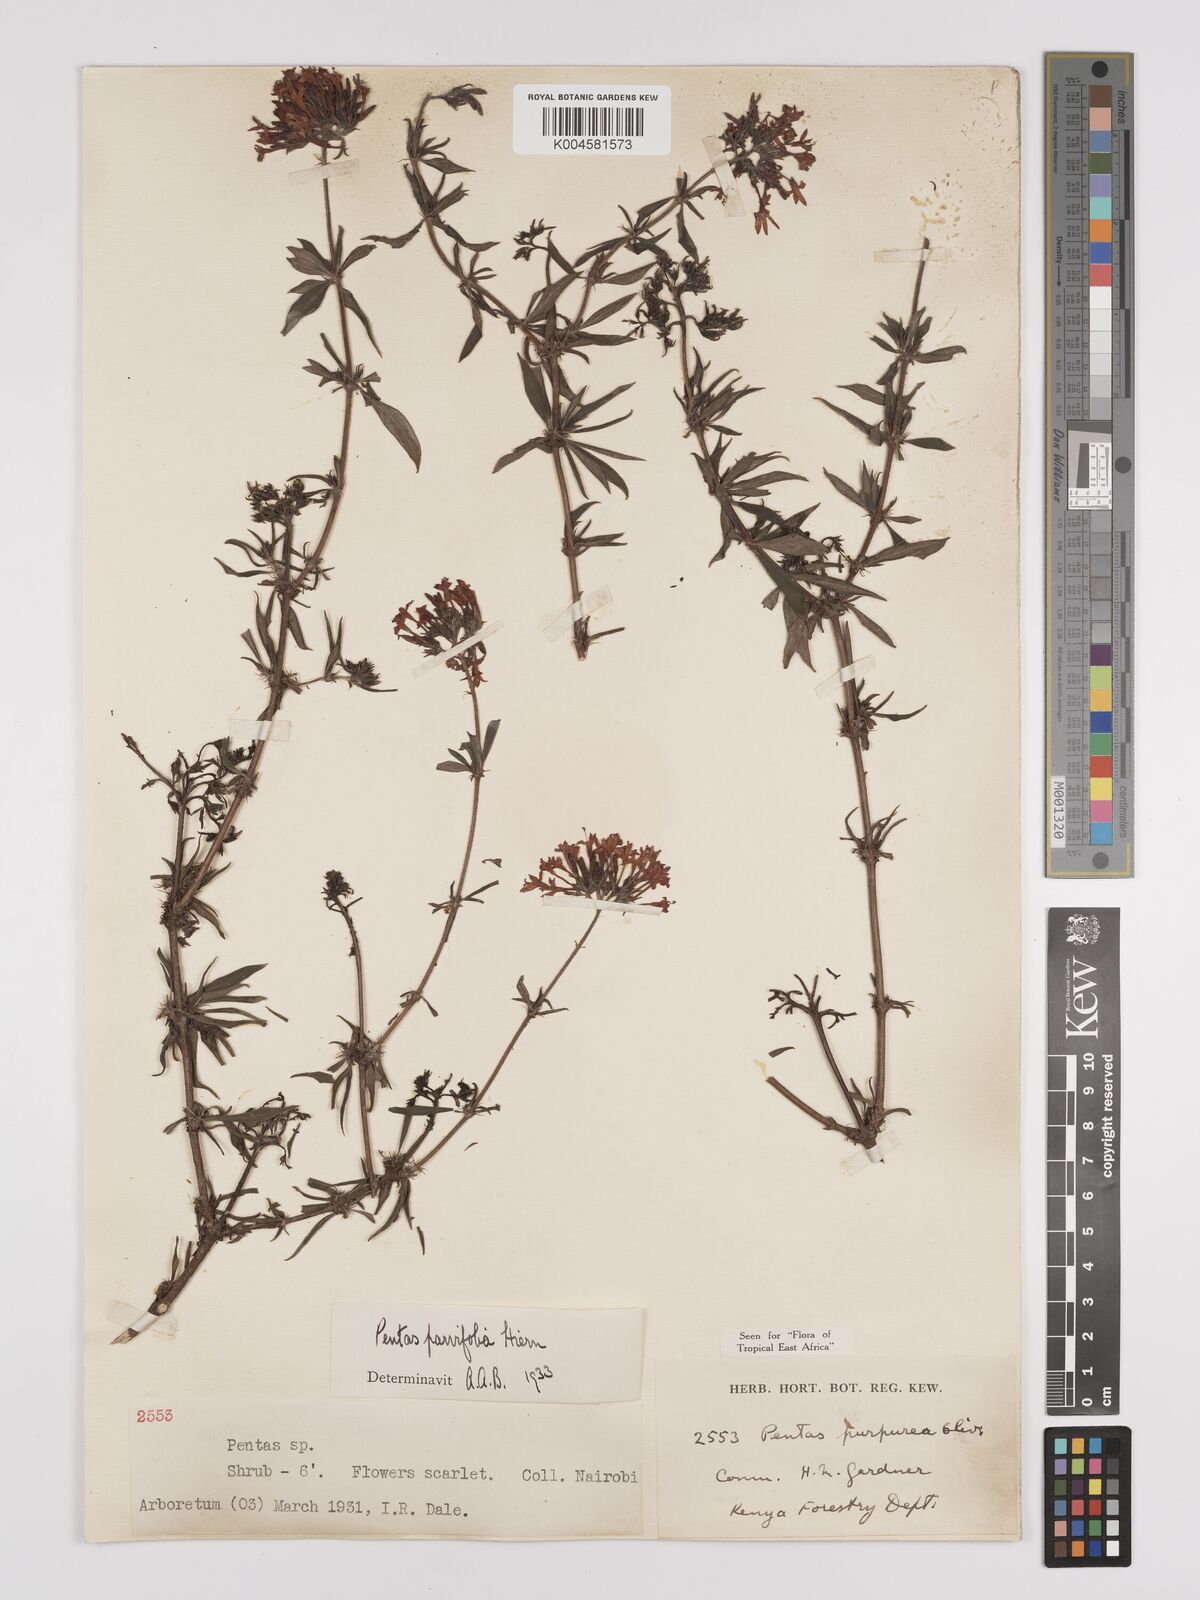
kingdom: Plantae
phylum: Tracheophyta
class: Magnoliopsida
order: Gentianales
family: Rubiaceae
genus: Rhodopentas
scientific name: Rhodopentas parvifolia
